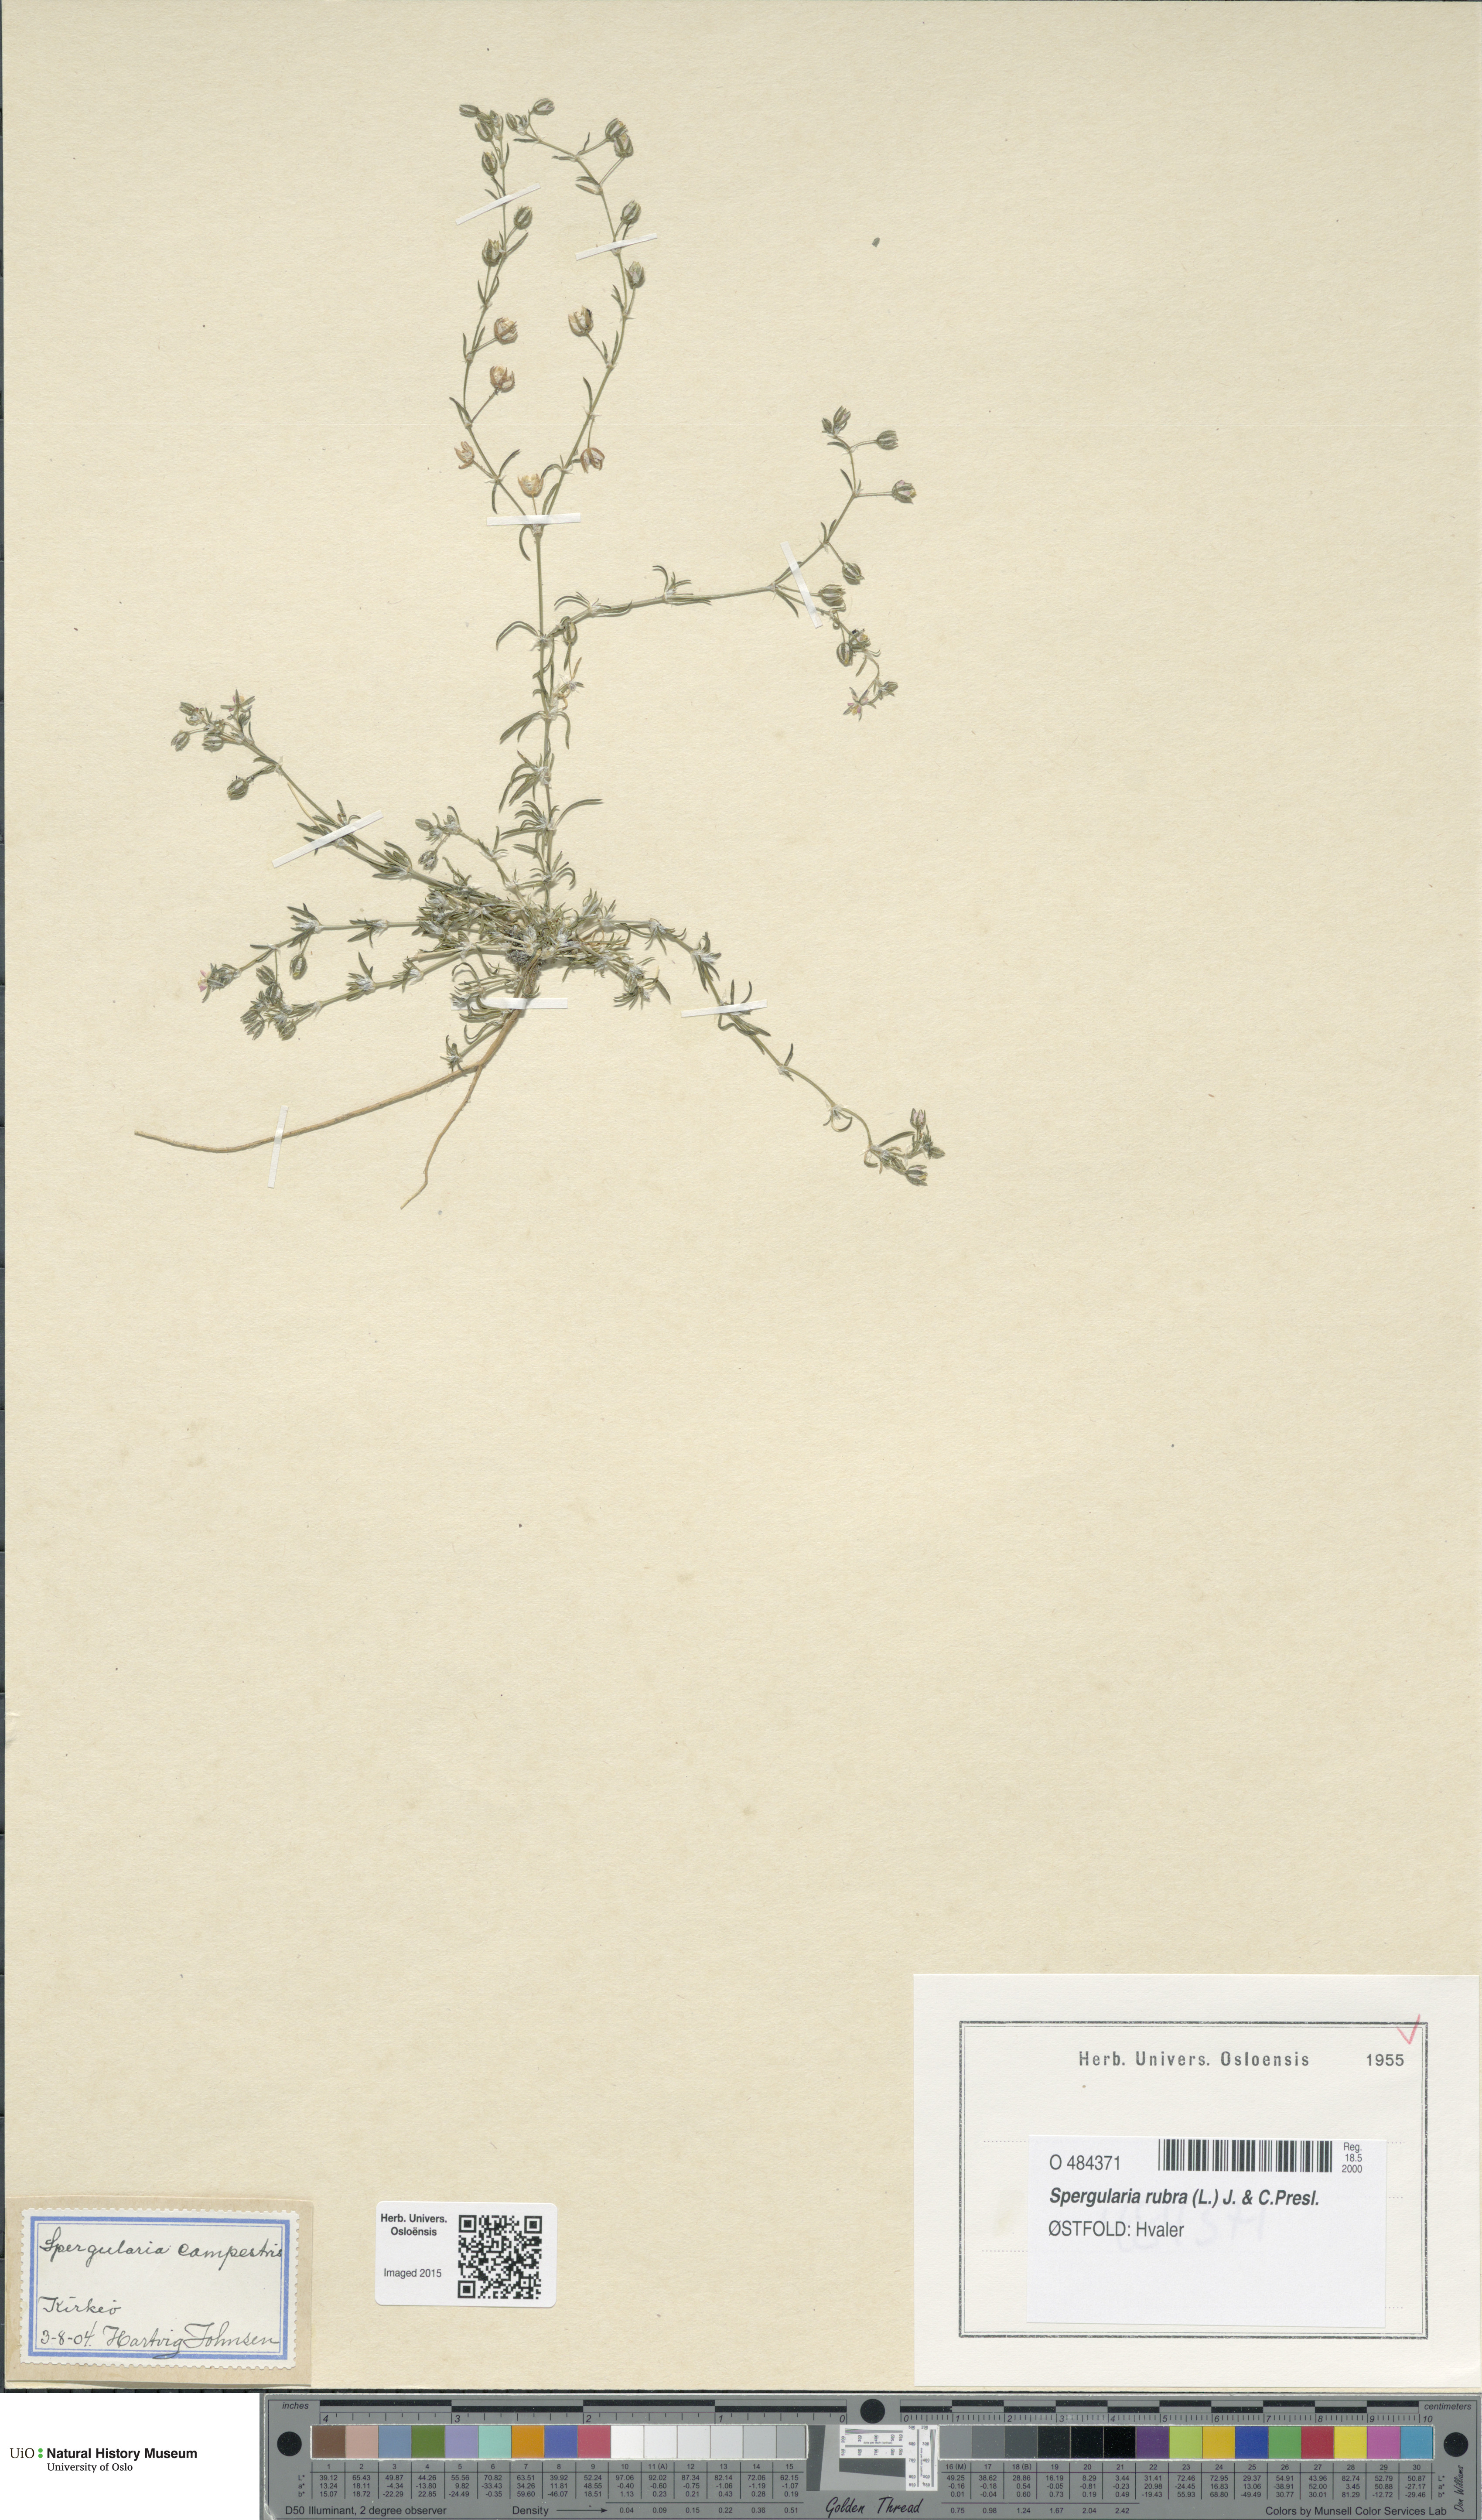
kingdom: Plantae
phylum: Tracheophyta
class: Magnoliopsida
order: Caryophyllales
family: Caryophyllaceae
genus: Spergularia
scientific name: Spergularia rubra
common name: Red sand-spurrey
